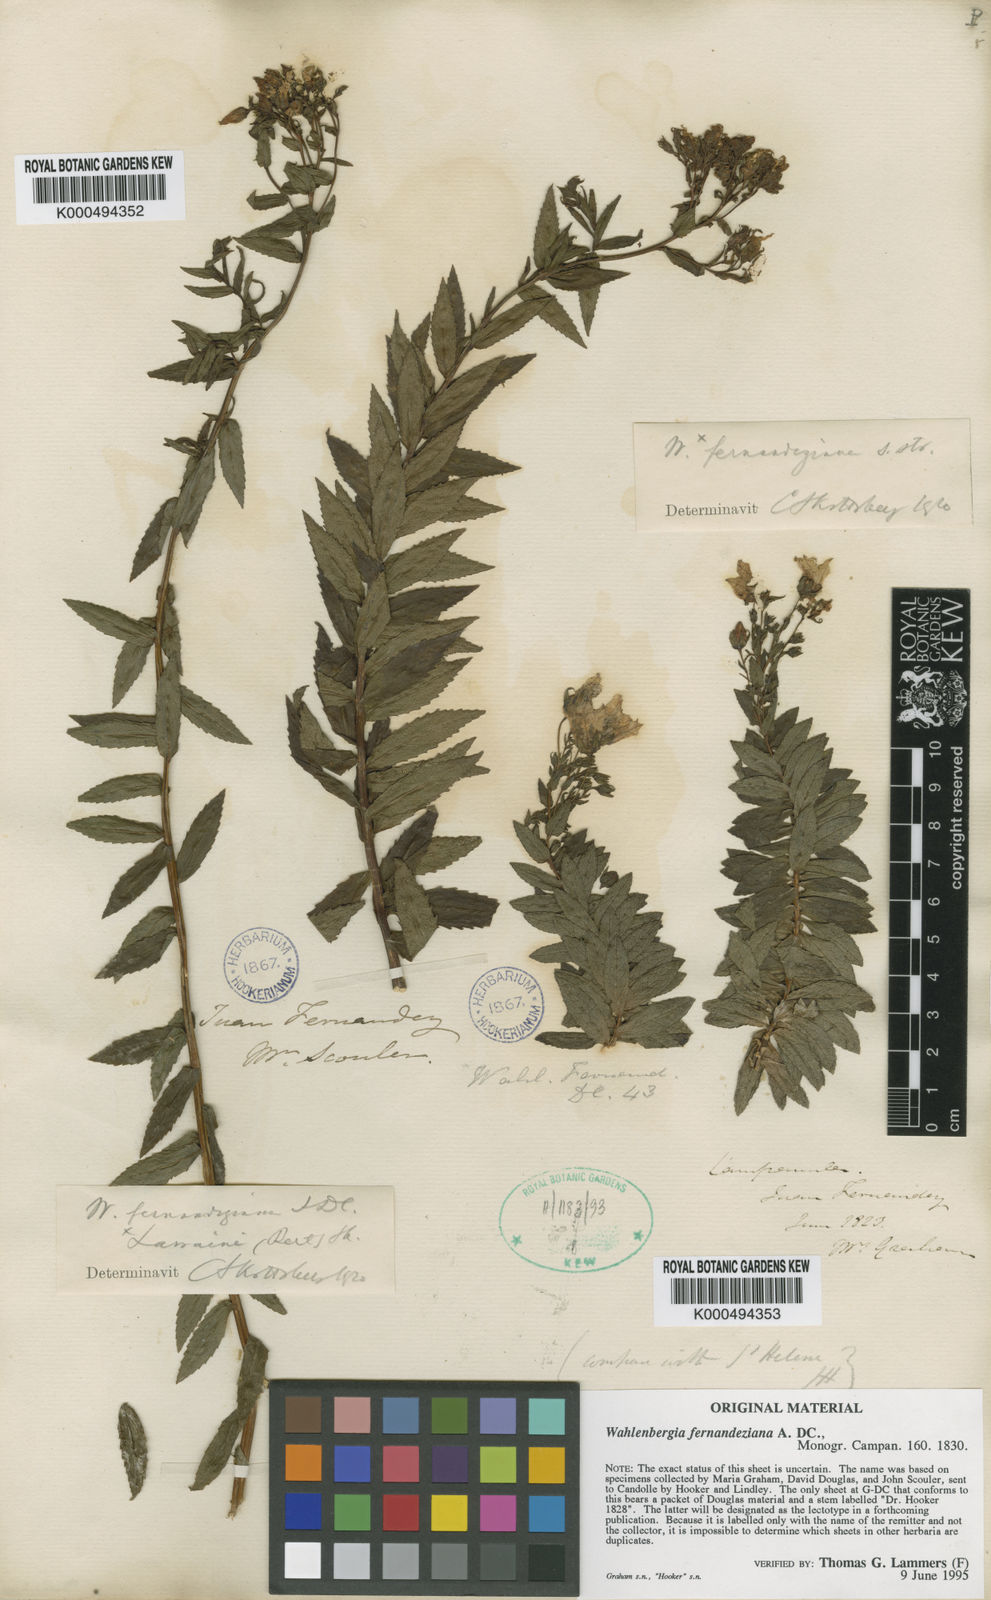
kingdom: Plantae
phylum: Tracheophyta
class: Magnoliopsida
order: Asterales
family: Campanulaceae
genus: Wahlenbergia
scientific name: Wahlenbergia fernandeziana
